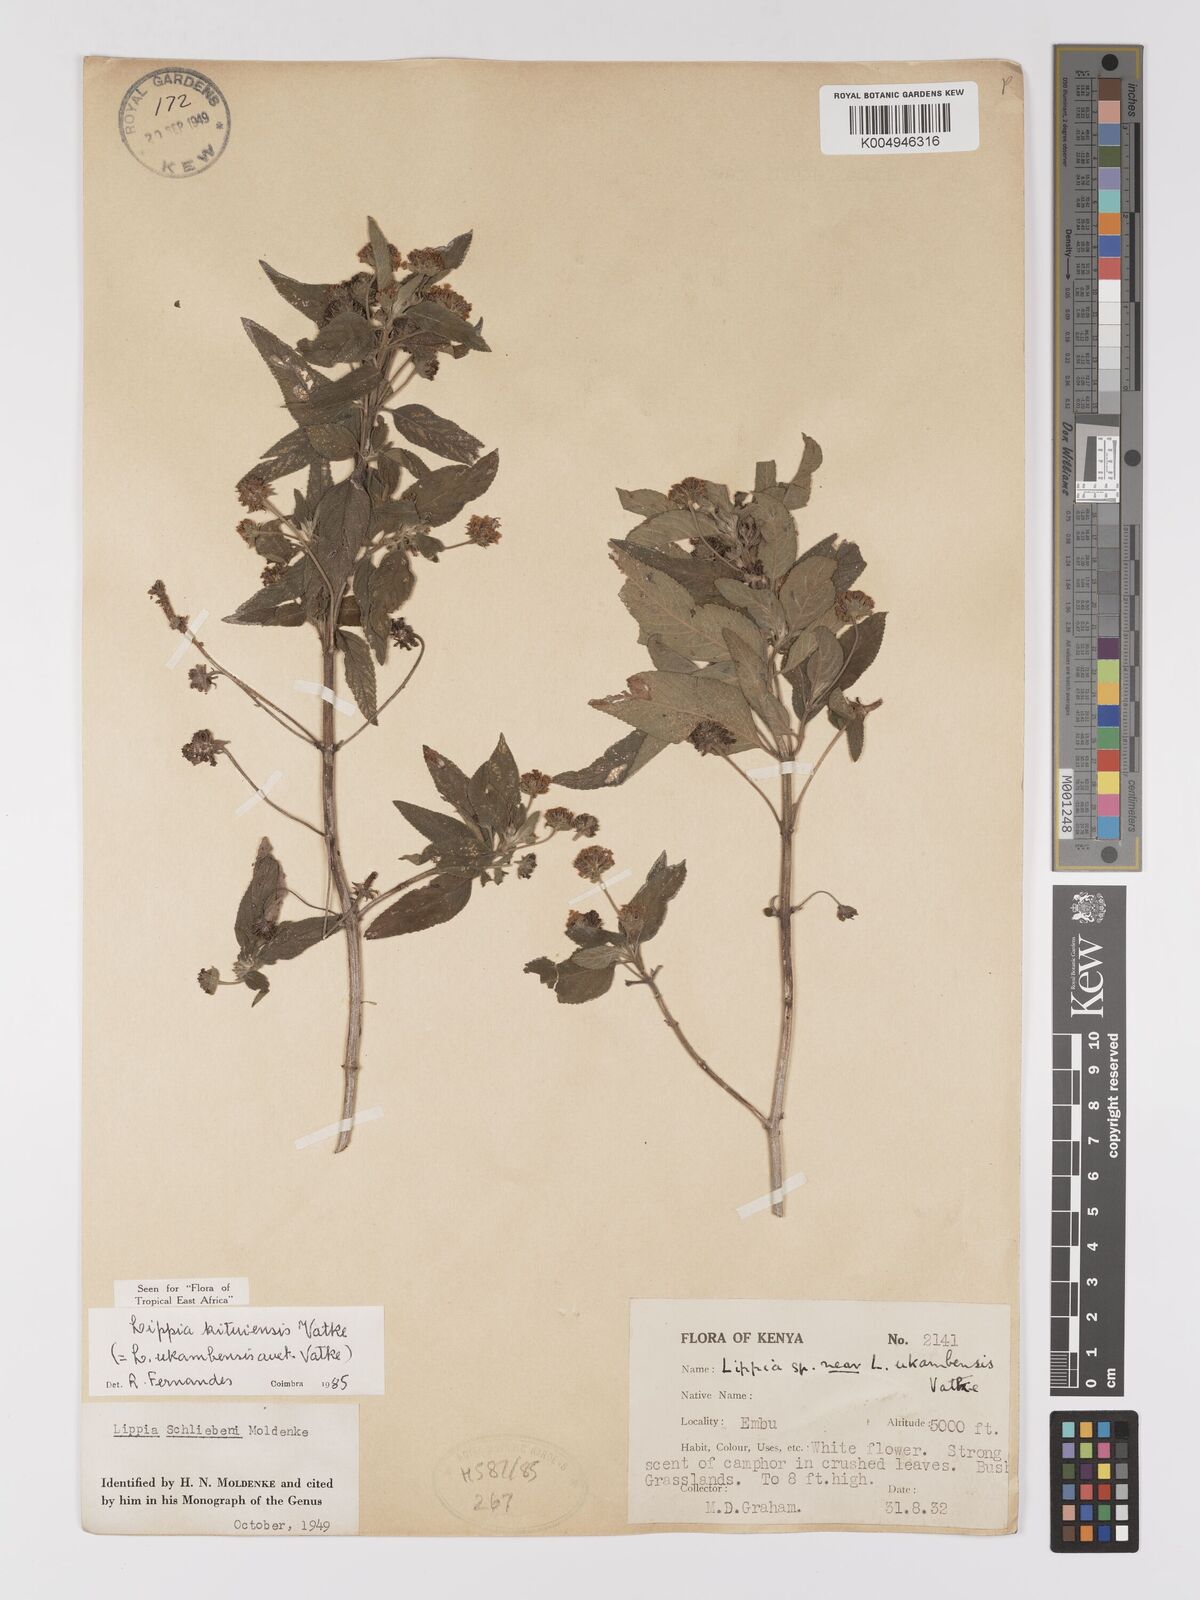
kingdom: Plantae
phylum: Tracheophyta
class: Magnoliopsida
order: Lamiales
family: Verbenaceae
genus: Lippia
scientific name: Lippia kituiensis
